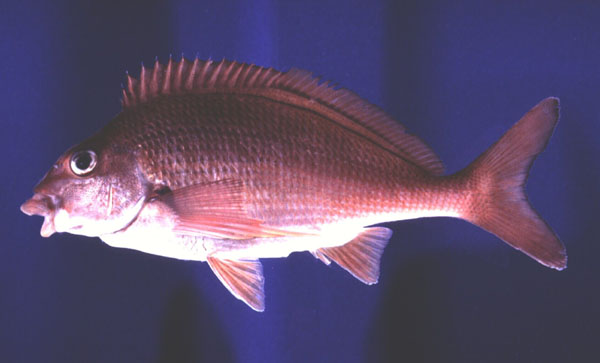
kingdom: Animalia
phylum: Chordata
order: Perciformes
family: Cheilodactylidae
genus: Chirodactylus
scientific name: Chirodactylus jessicalenorum
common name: Natal fingerfin
